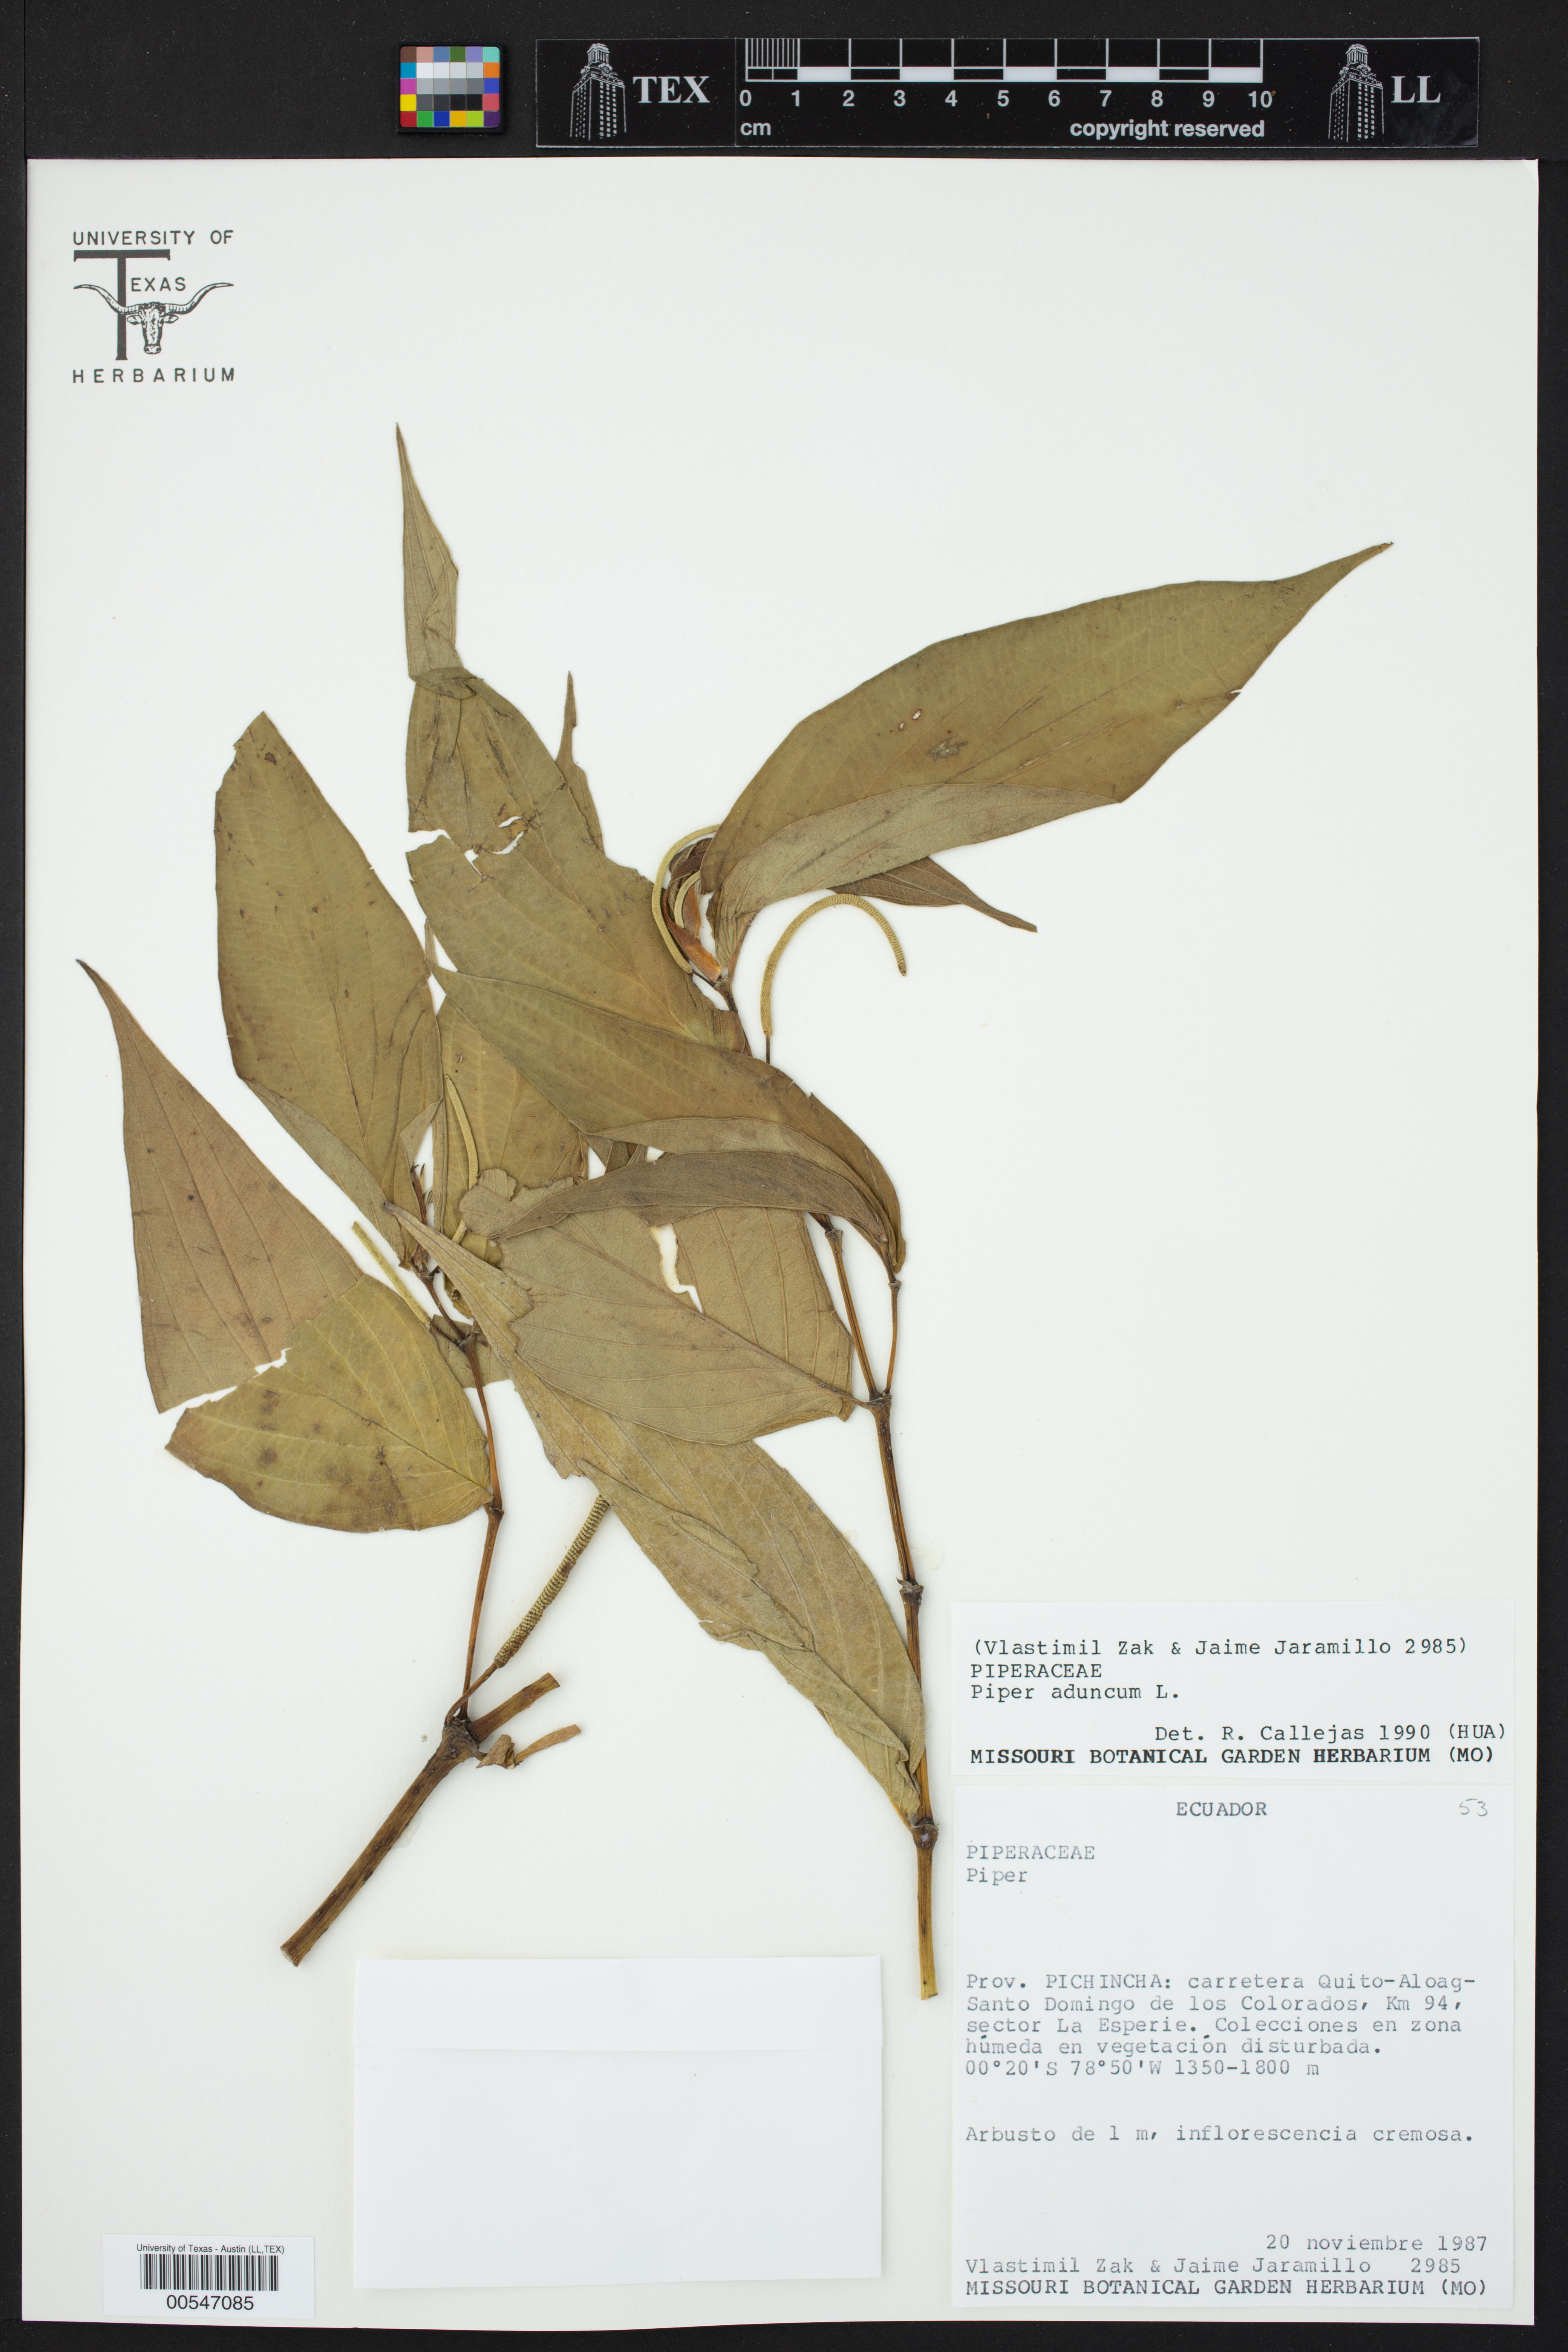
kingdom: Plantae
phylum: Tracheophyta
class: Magnoliopsida
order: Piperales
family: Piperaceae
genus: Piper
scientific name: Piper aduncum
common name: Spiked pepper
